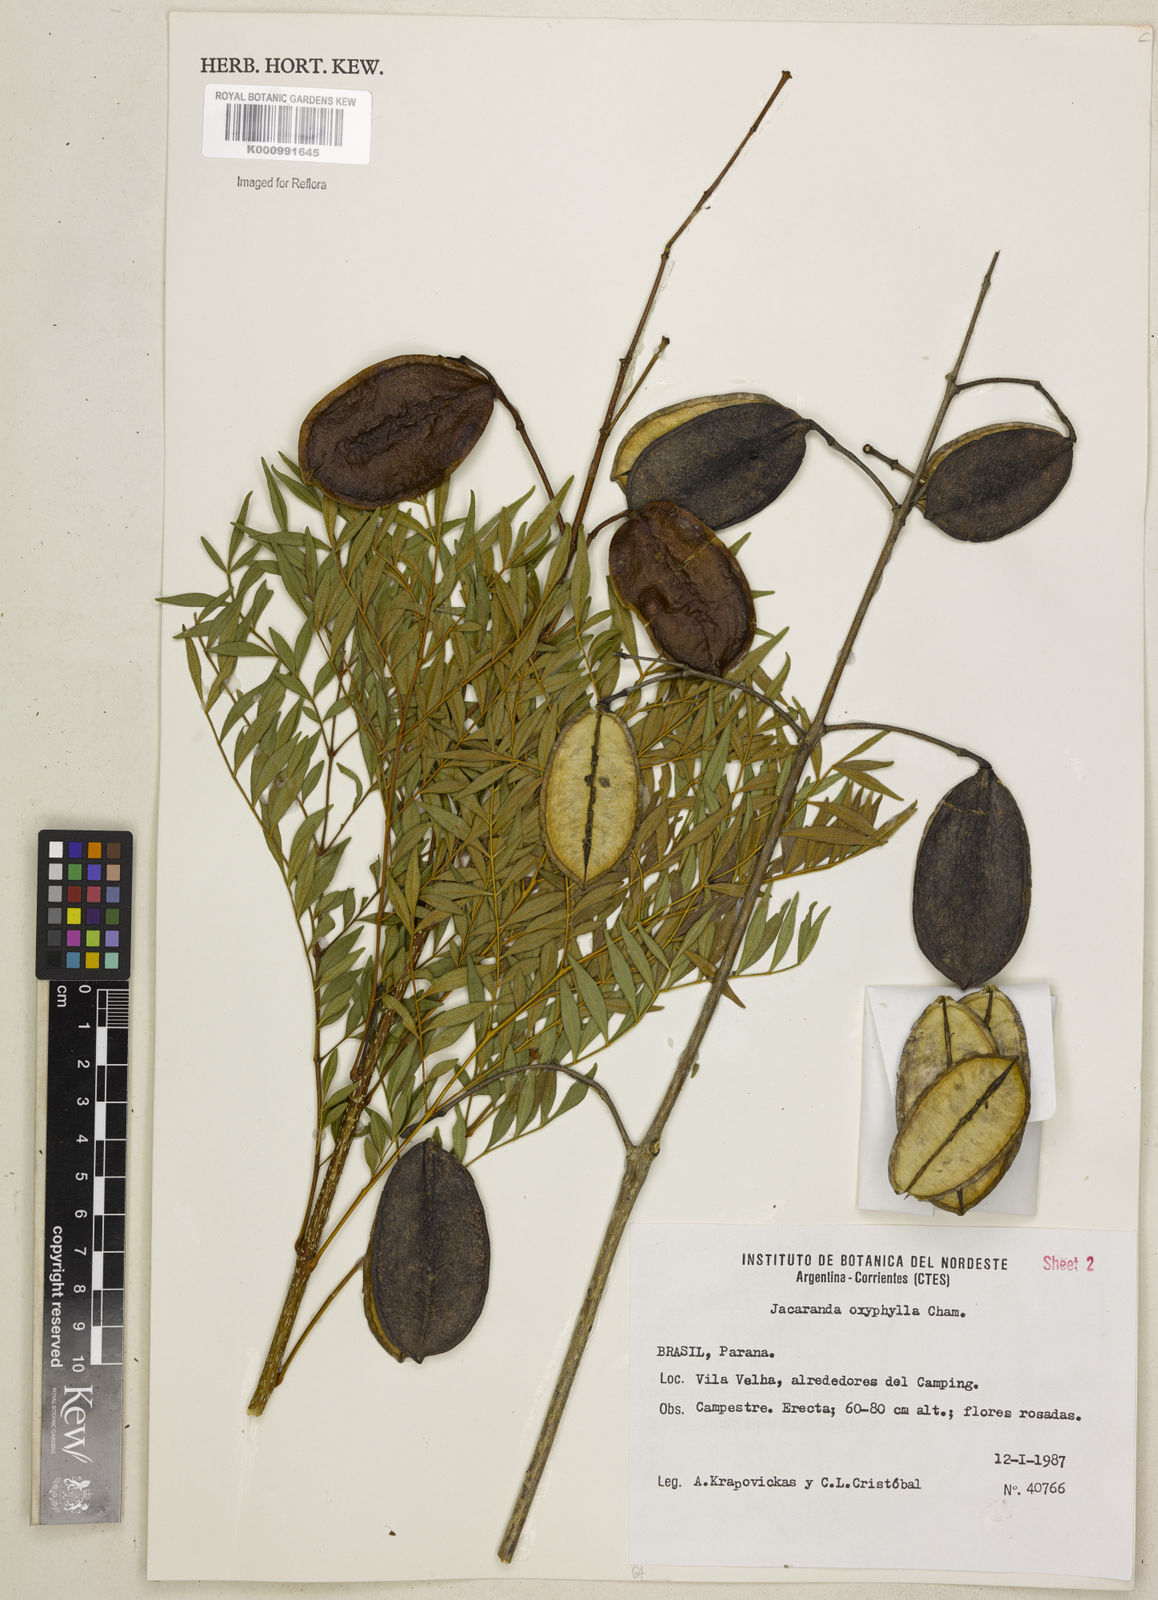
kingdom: Plantae
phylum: Tracheophyta
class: Magnoliopsida
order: Lamiales
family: Bignoniaceae
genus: Jacaranda
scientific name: Jacaranda caroba
